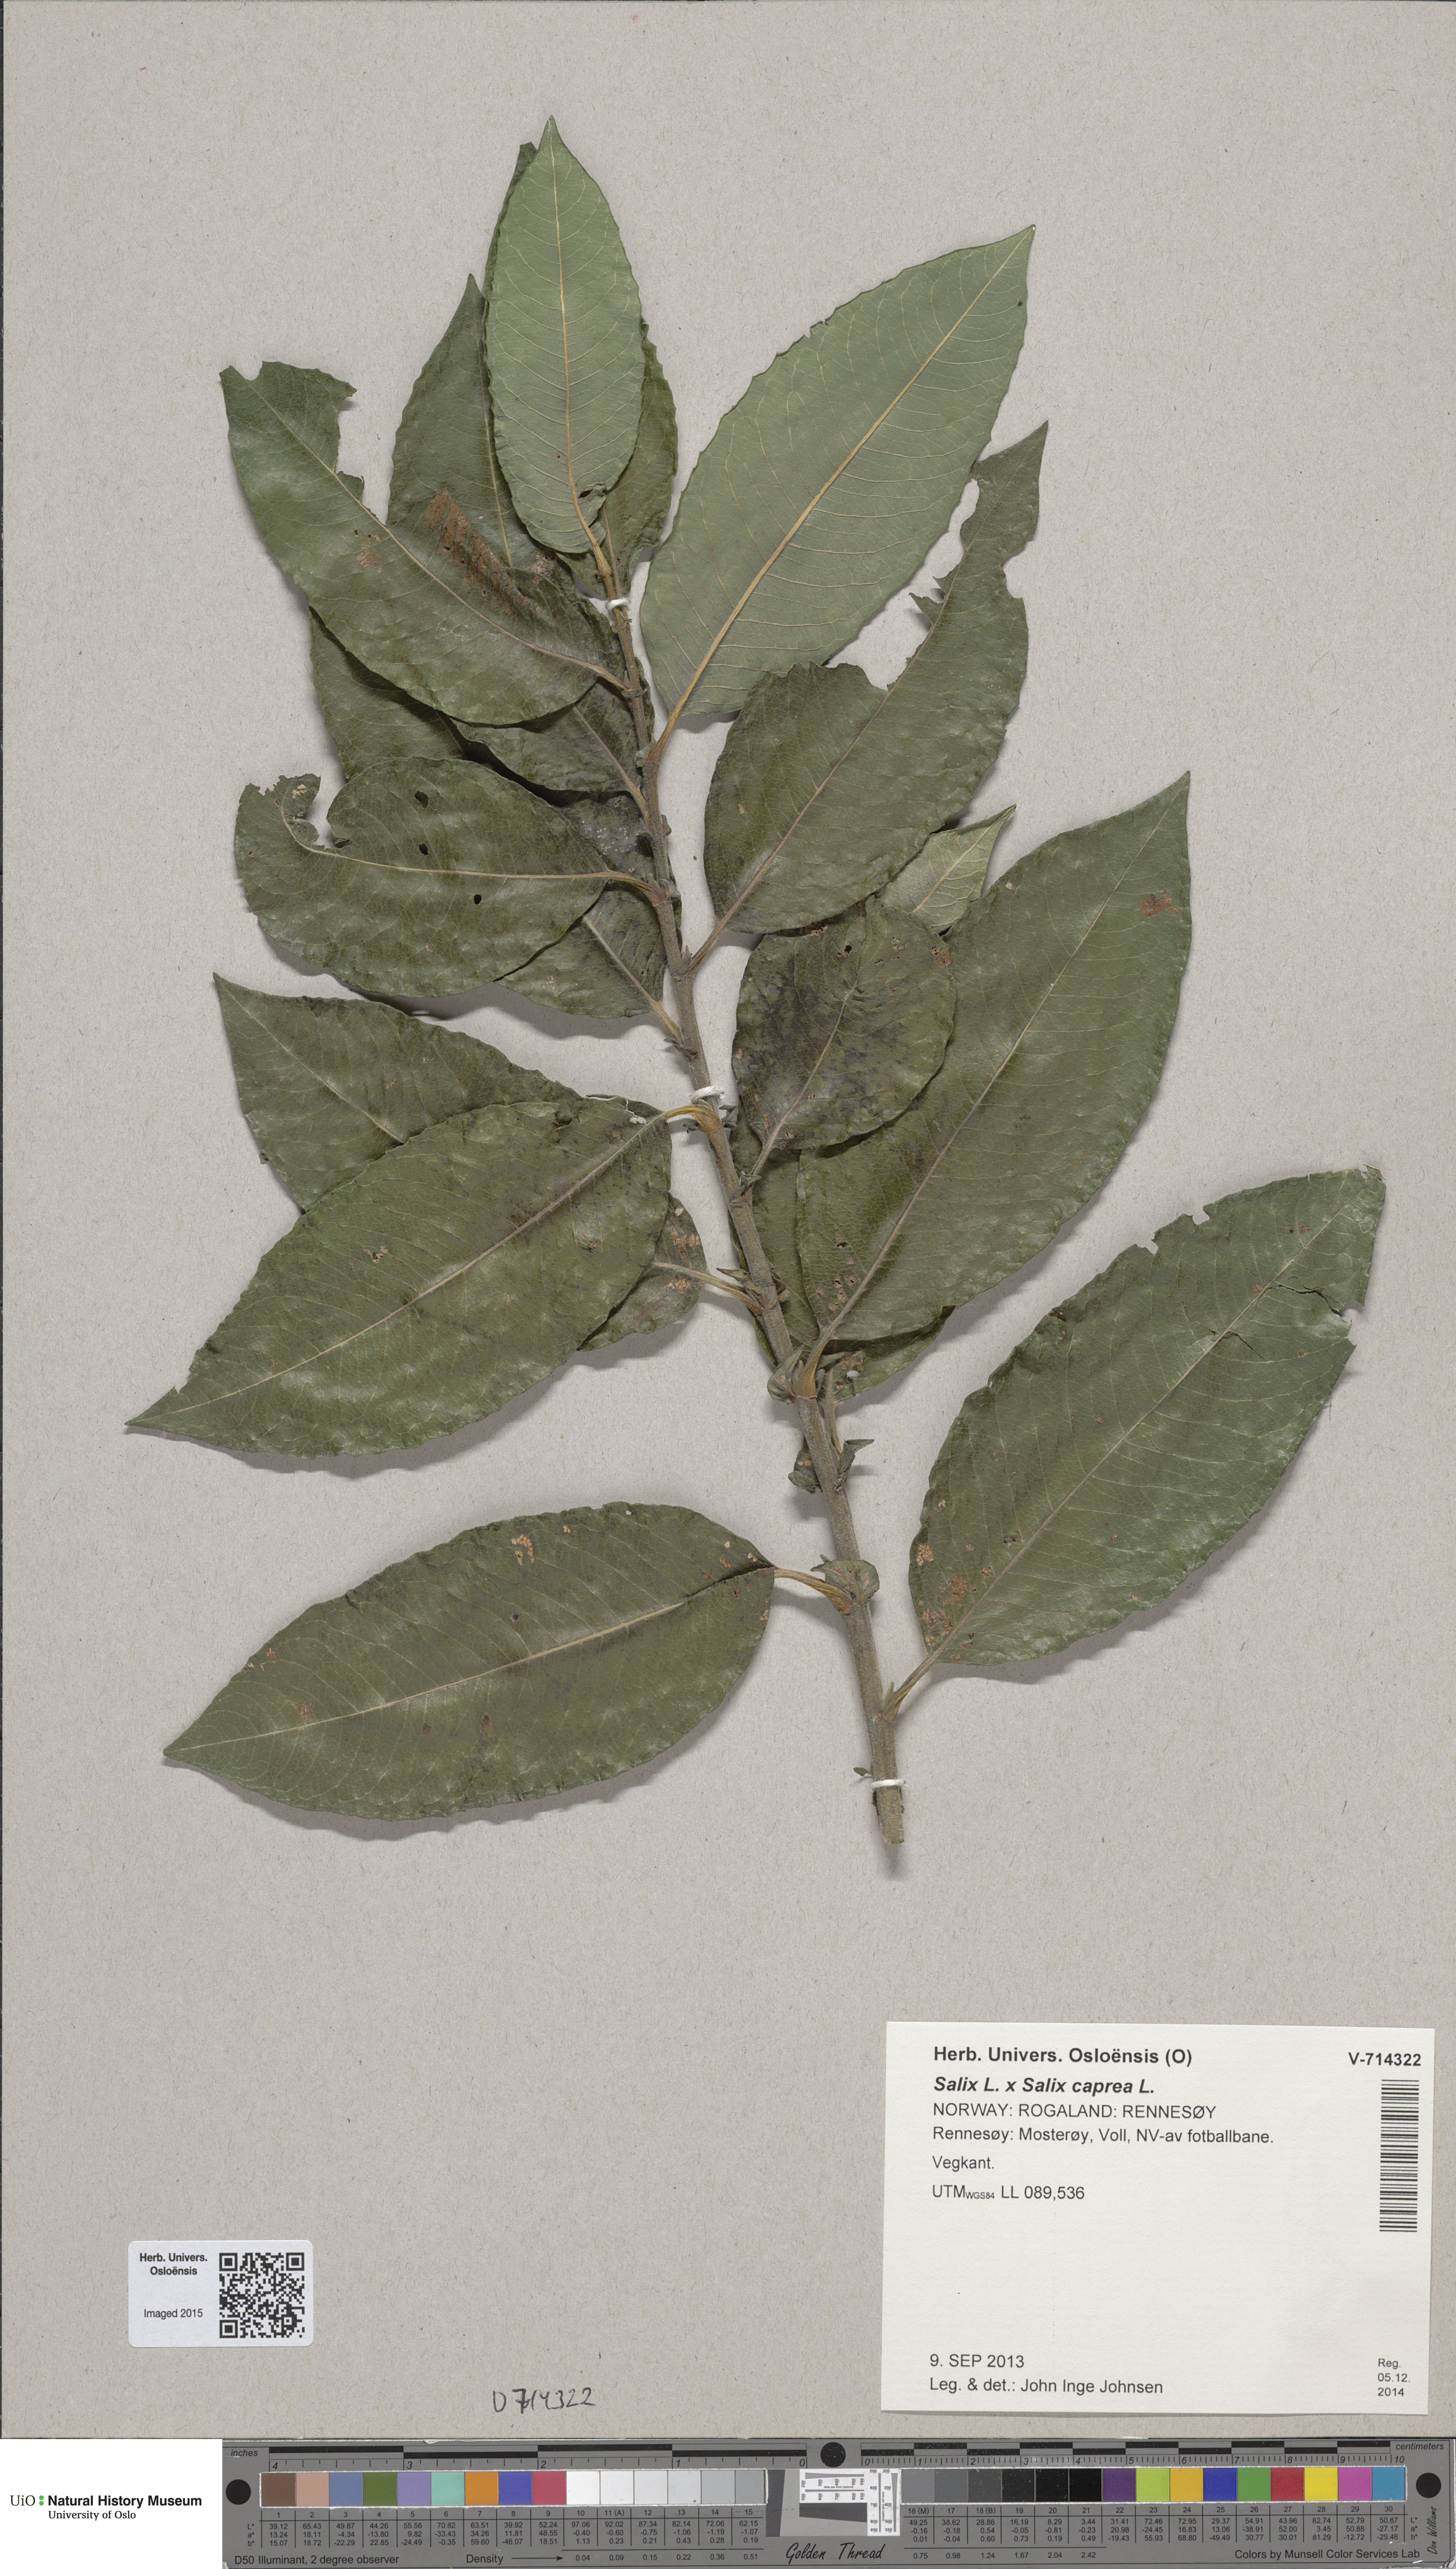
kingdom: Plantae
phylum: Tracheophyta
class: Magnoliopsida
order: Malpighiales
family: Salicaceae
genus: Salix
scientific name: Salix pendulina
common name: Wisconsin weeping willow
